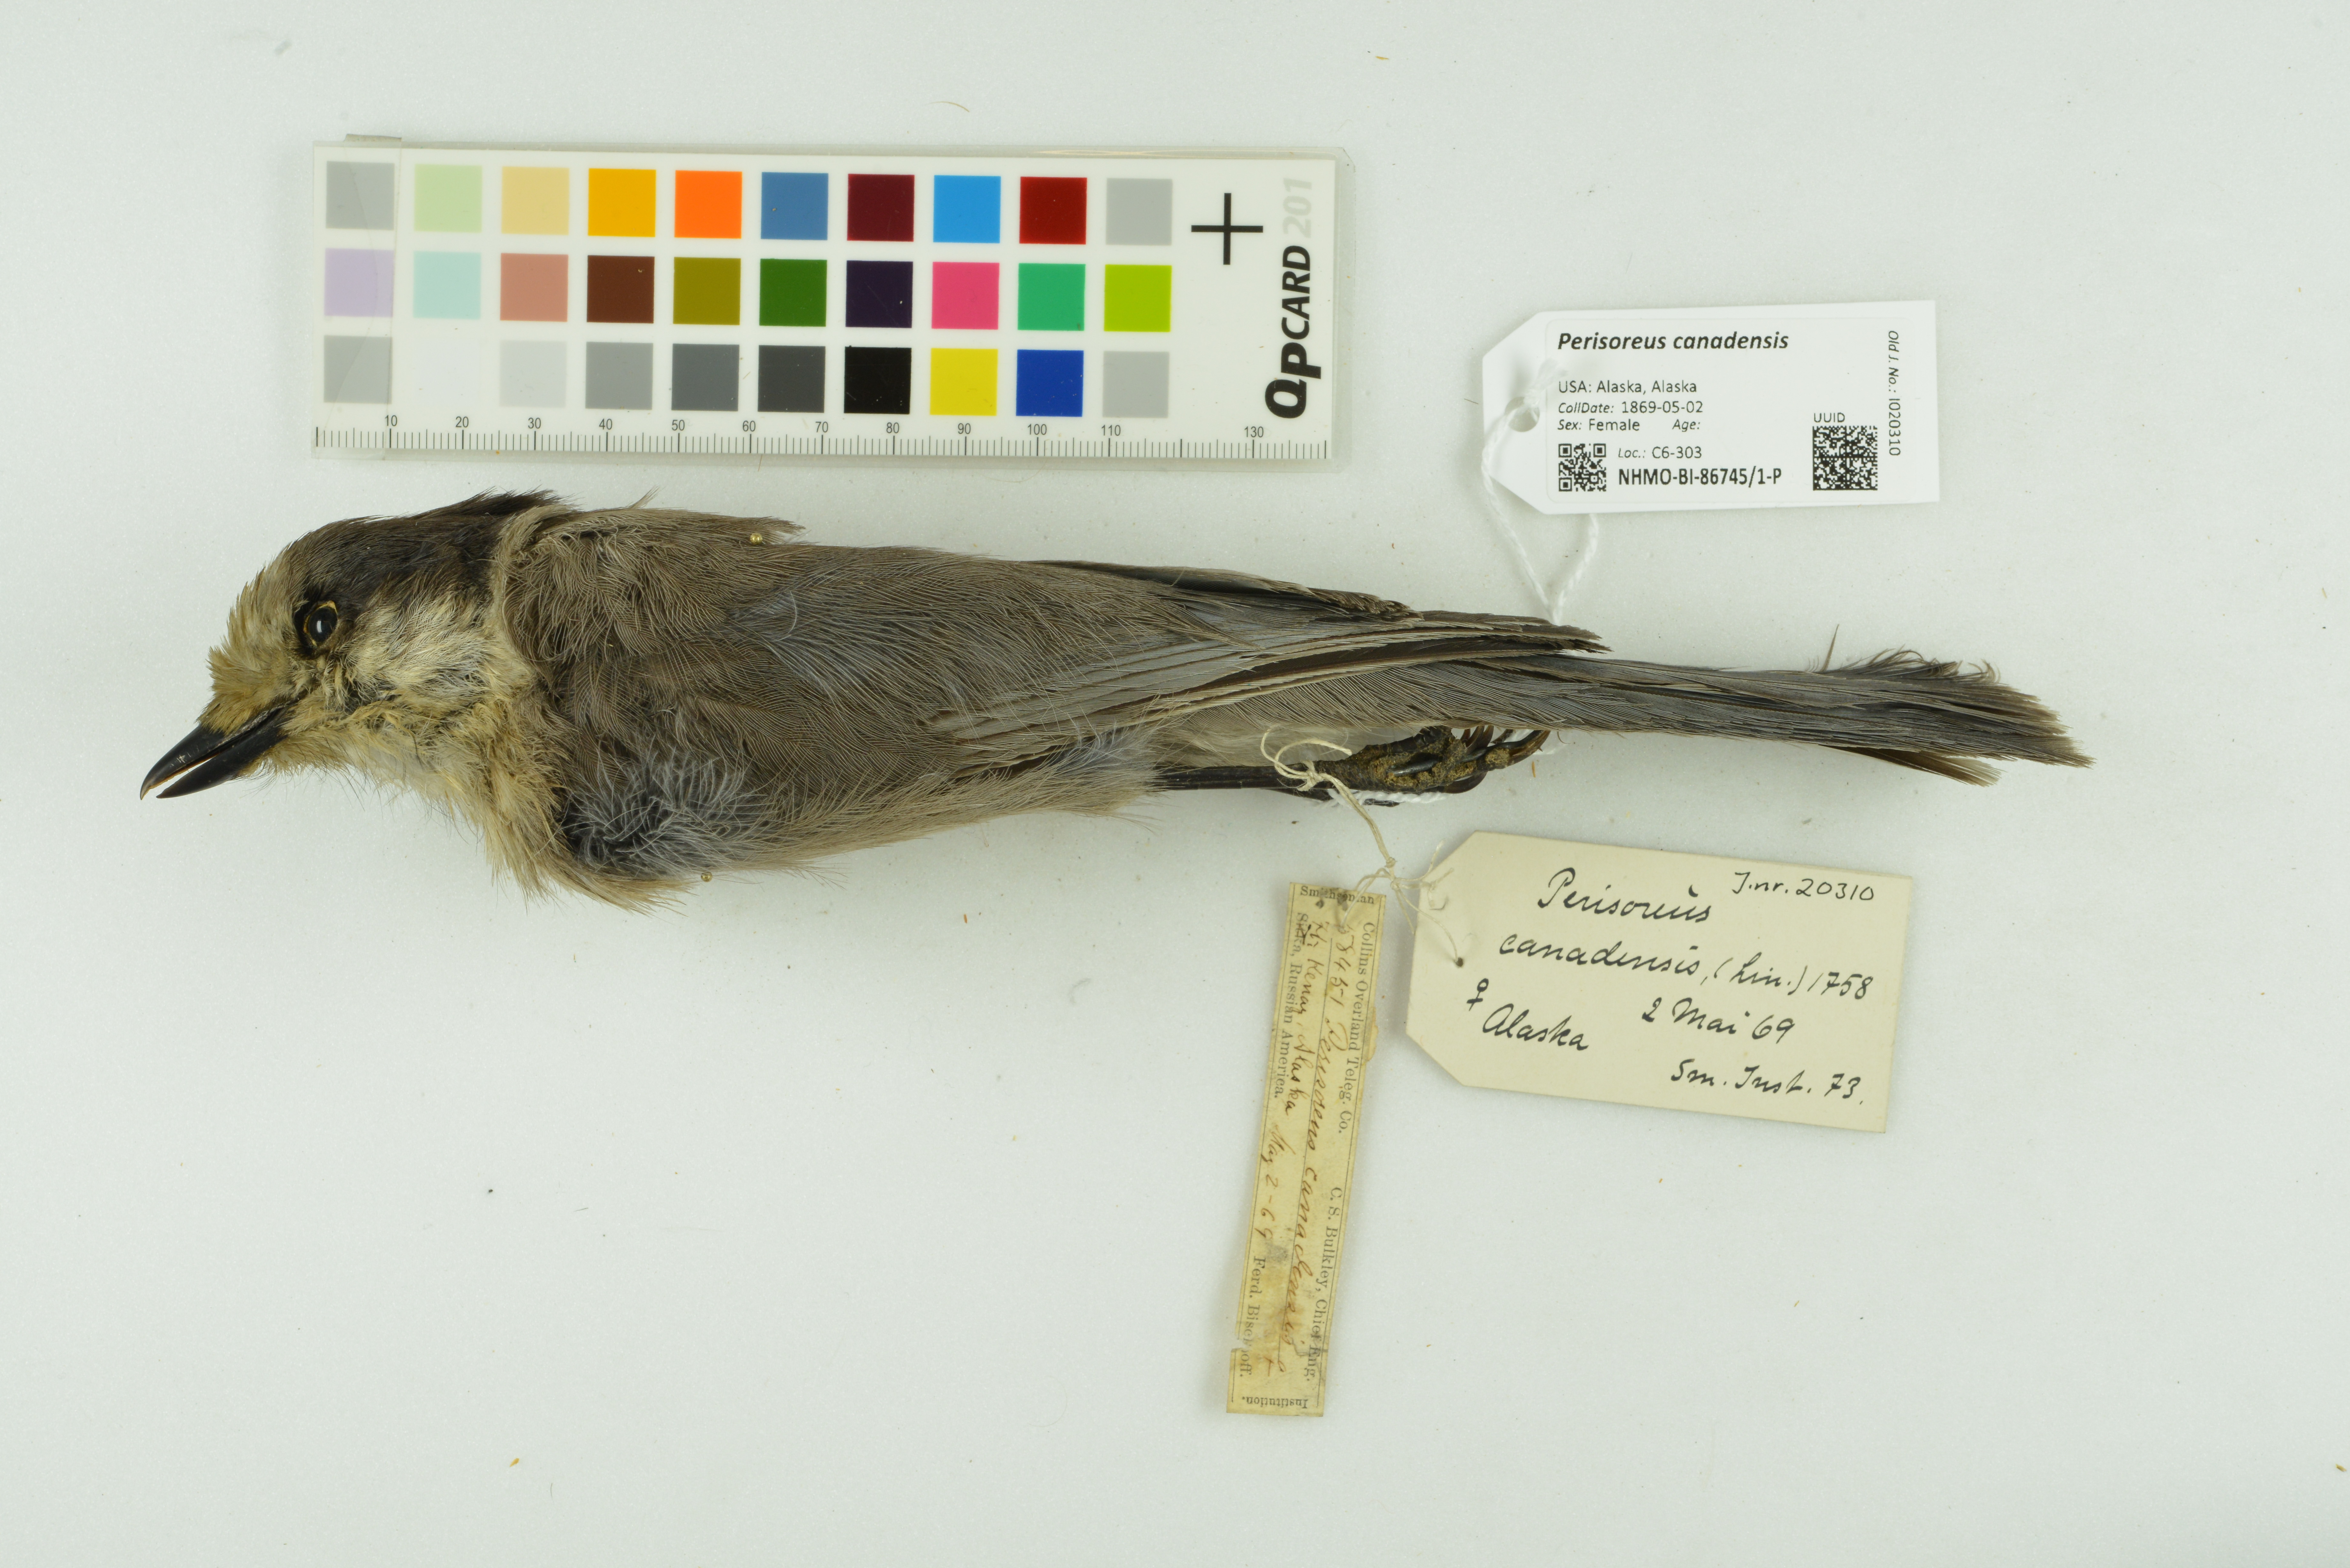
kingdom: Animalia
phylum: Chordata
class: Aves
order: Passeriformes
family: Corvidae
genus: Perisoreus
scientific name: Perisoreus canadensis
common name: Gray jay
